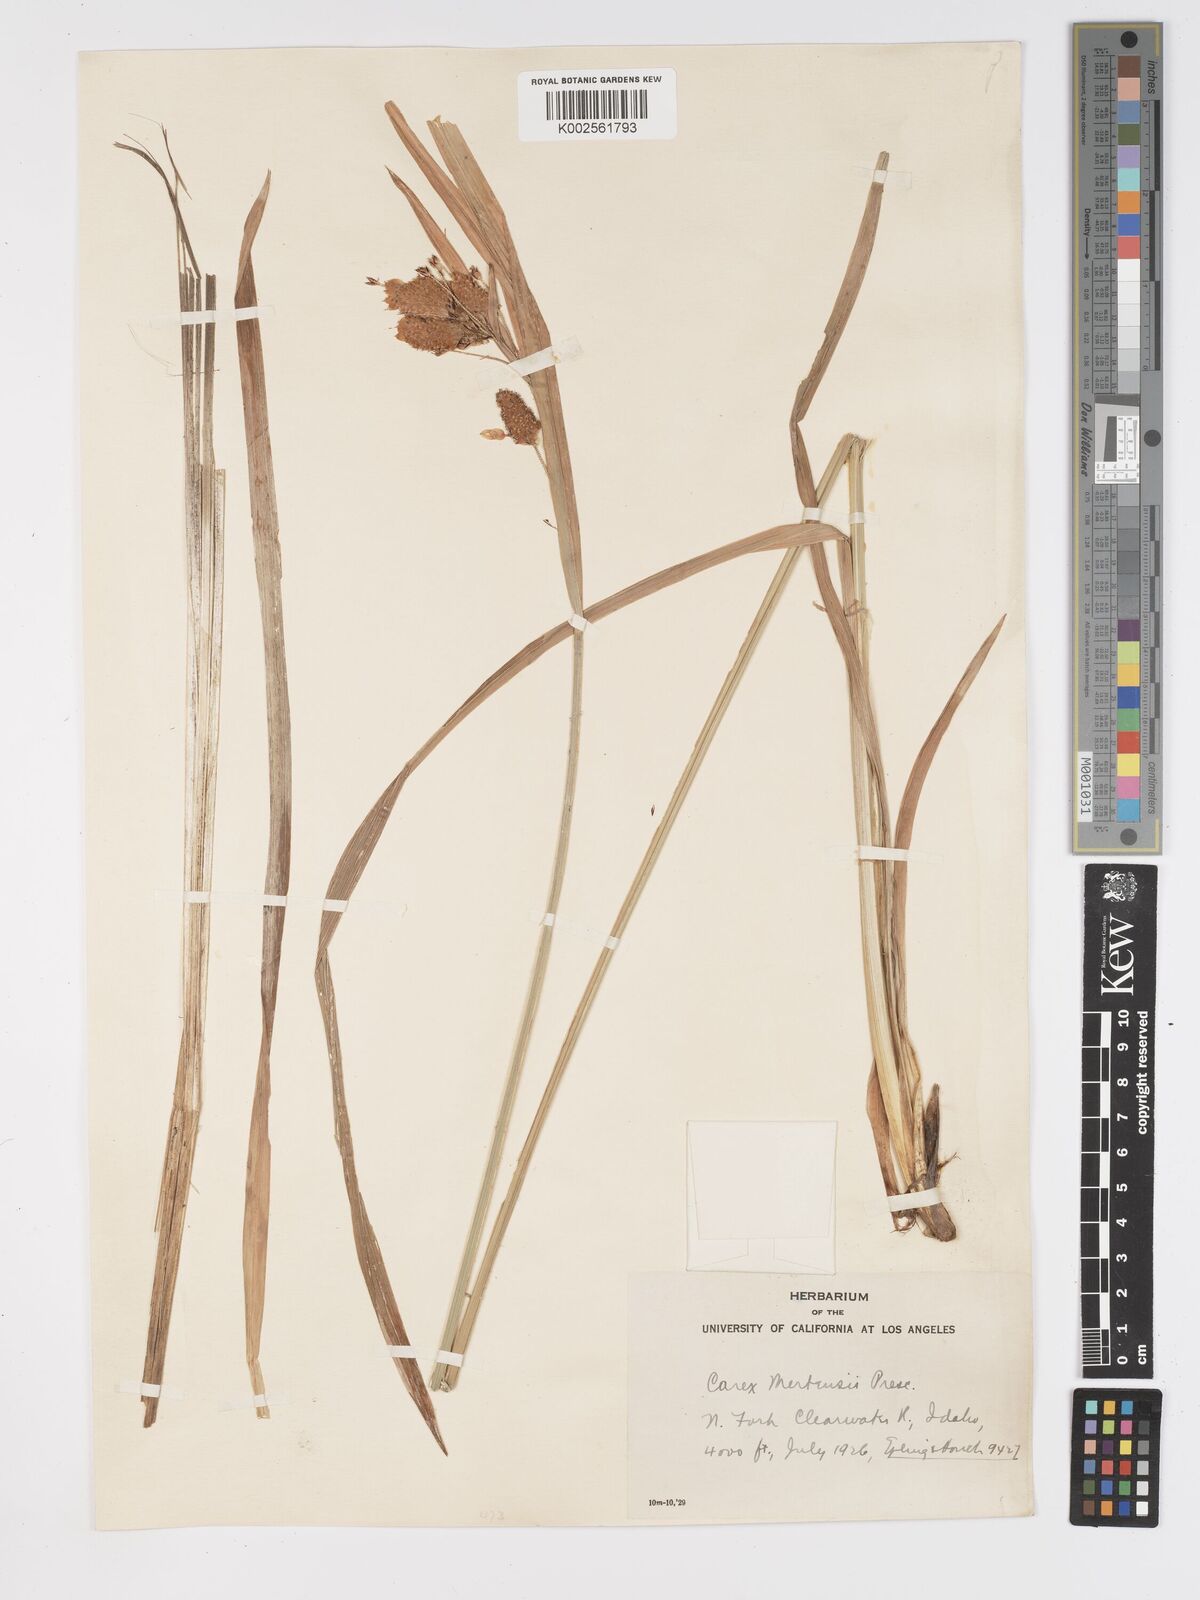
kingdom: Plantae
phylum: Tracheophyta
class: Liliopsida
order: Poales
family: Cyperaceae
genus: Carex
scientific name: Carex mertensii
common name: Mertens' sedge
